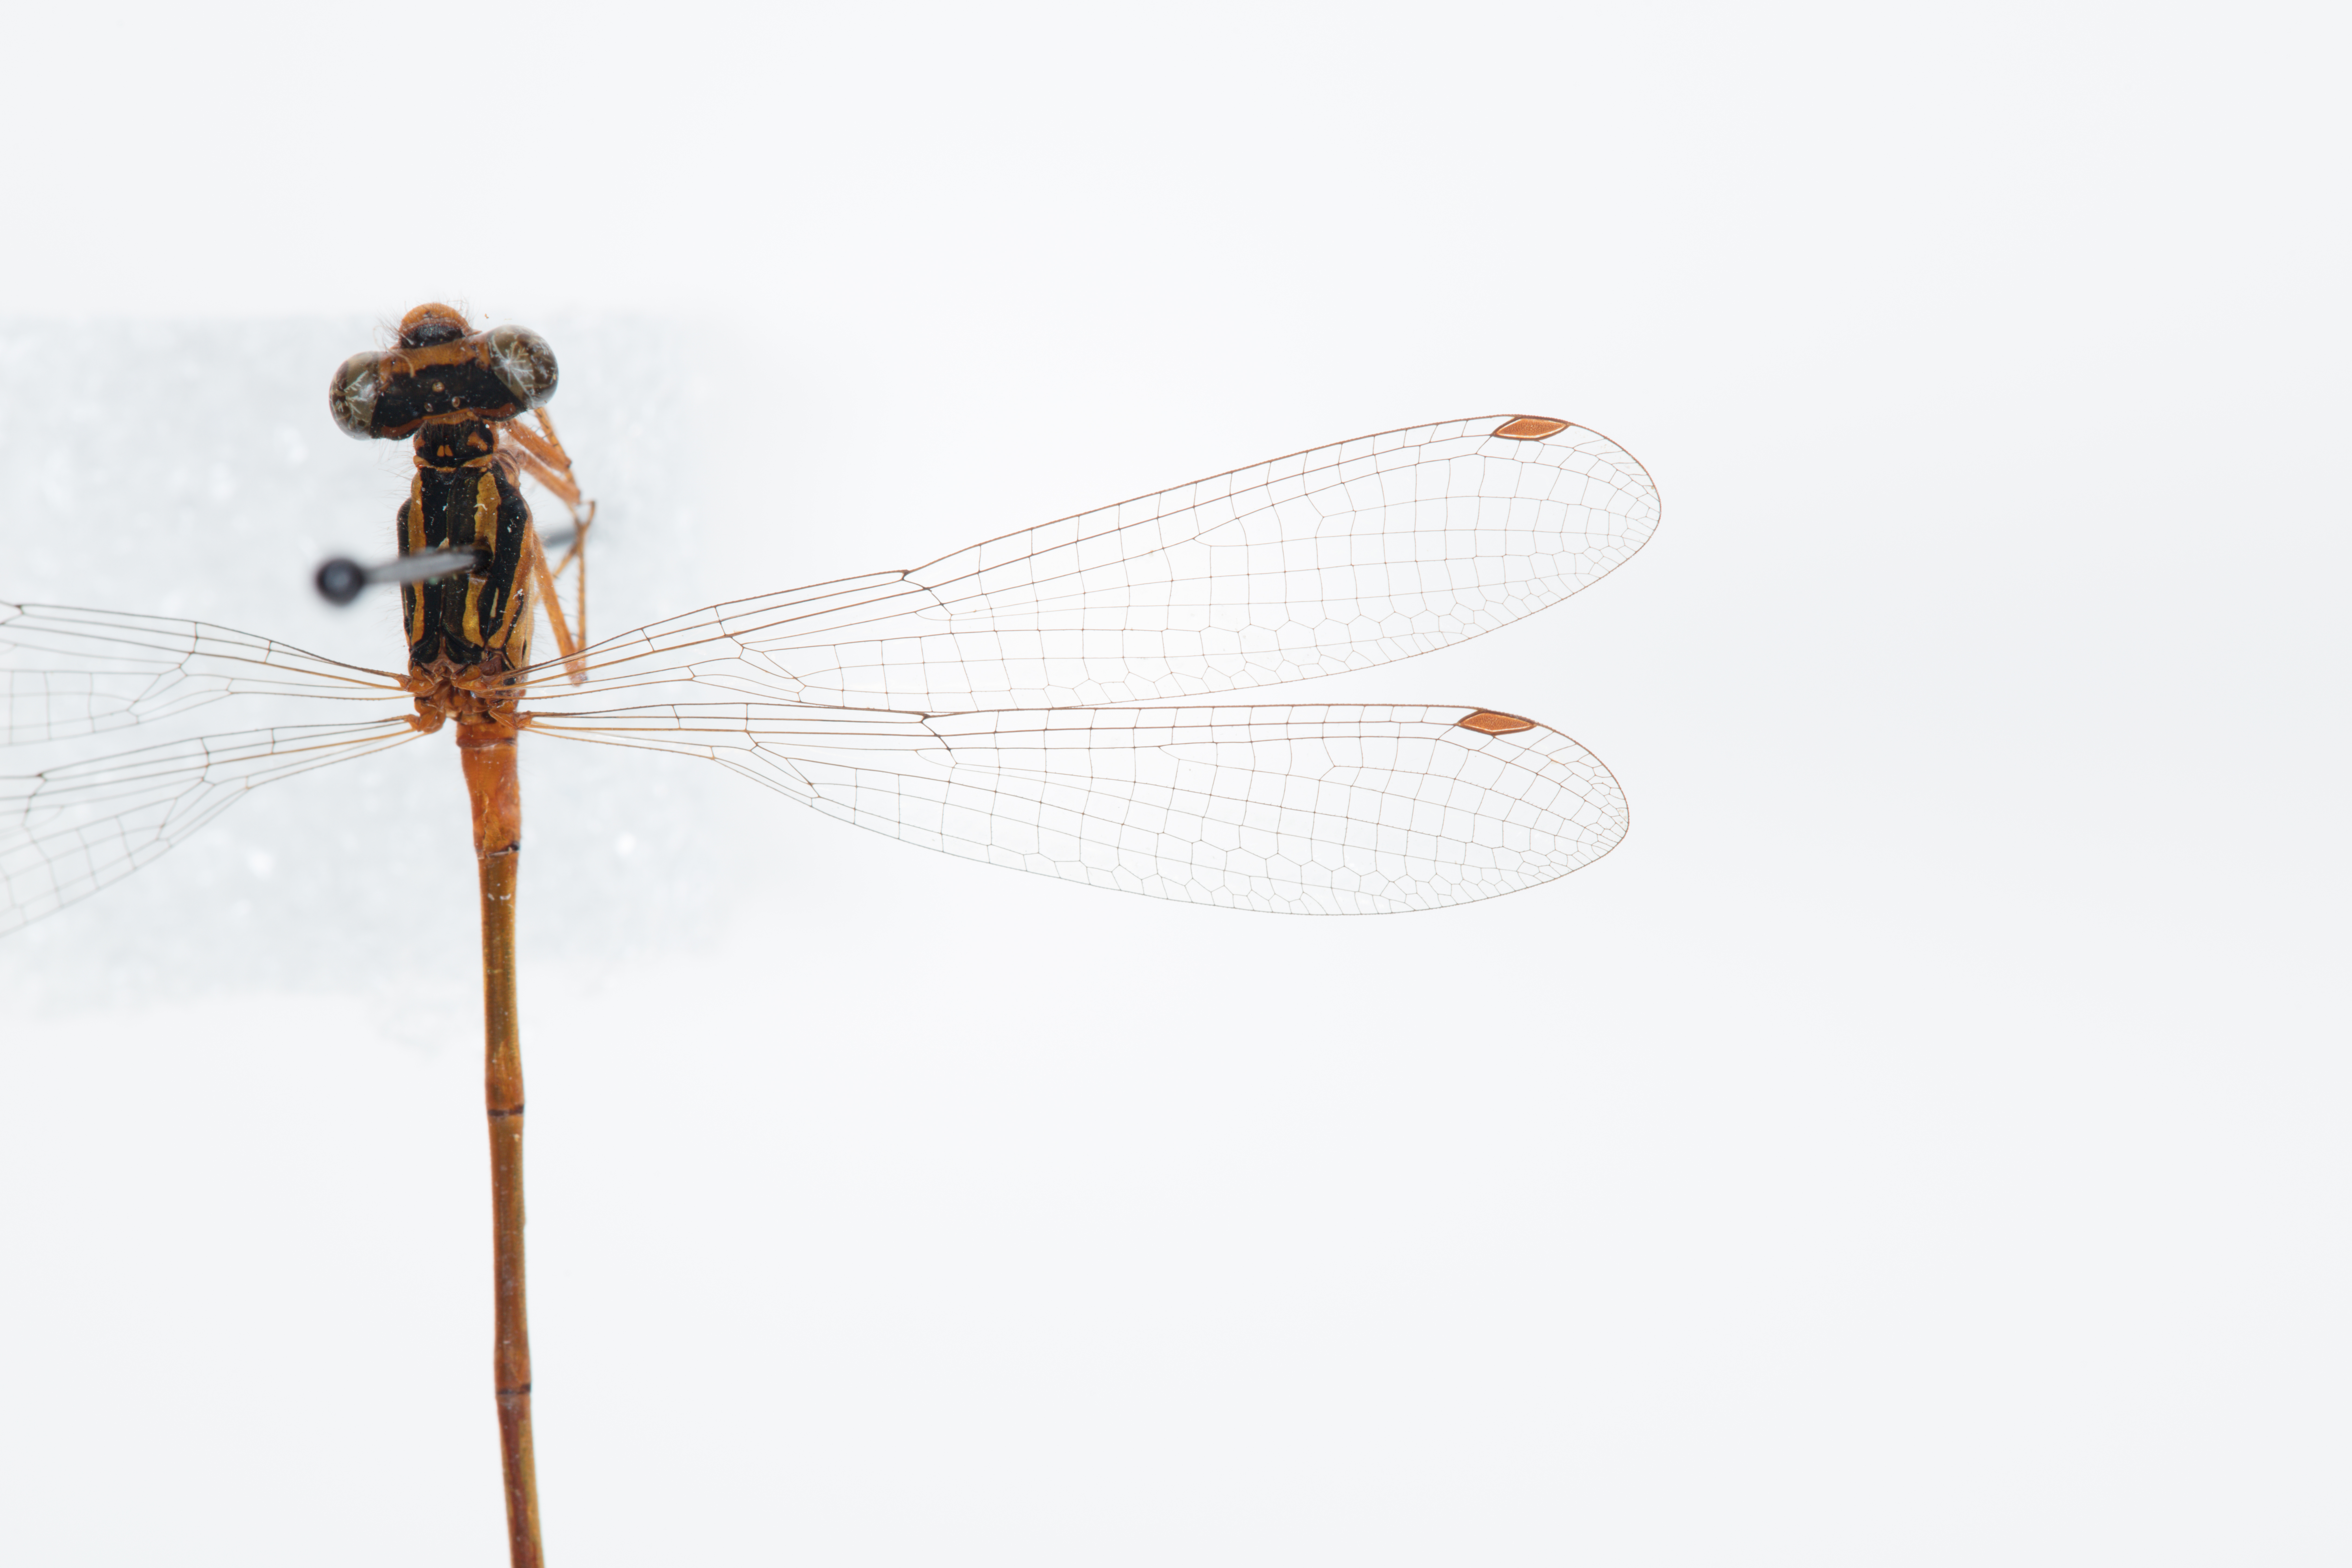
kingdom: Animalia
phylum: Arthropoda
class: Insecta
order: Odonata
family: Coenagrionidae
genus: Xanthocnemis
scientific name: Xanthocnemis zealandica
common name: Common redcoat damselfly
